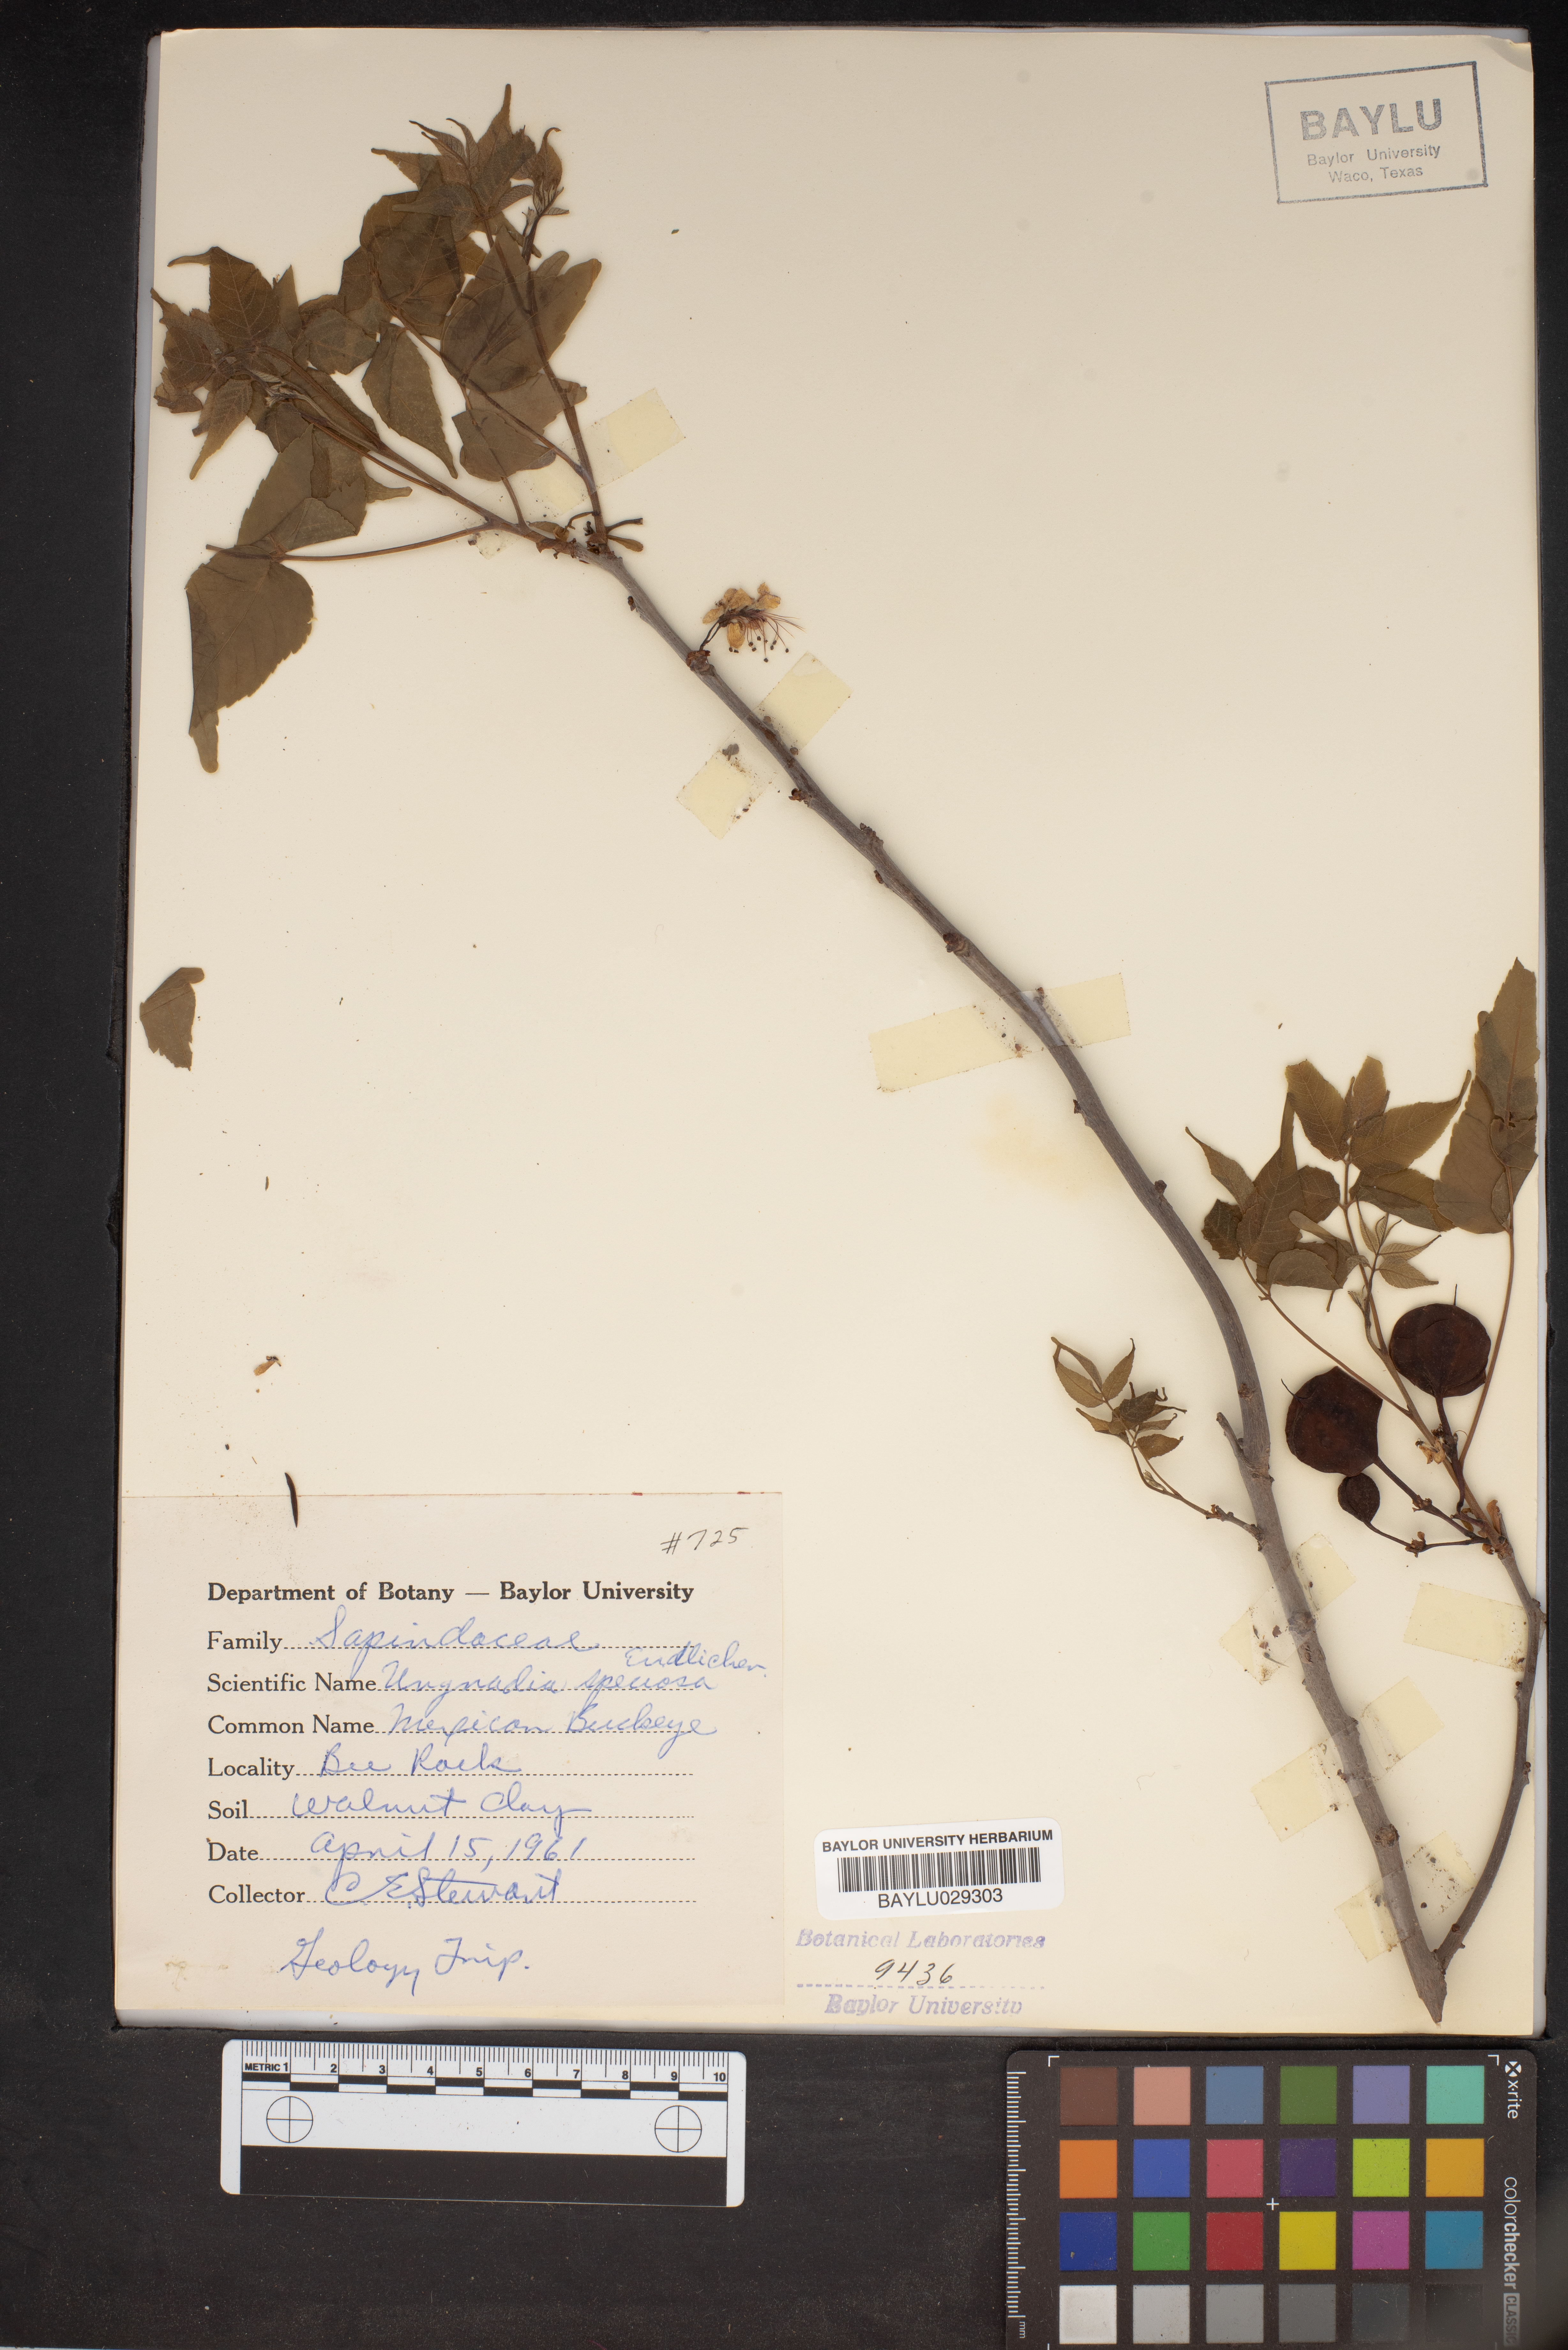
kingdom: Plantae
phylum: Tracheophyta
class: Magnoliopsida
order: Sapindales
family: Sapindaceae
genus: Ungnadia
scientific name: Ungnadia speciosa
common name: Texas-buckeye
